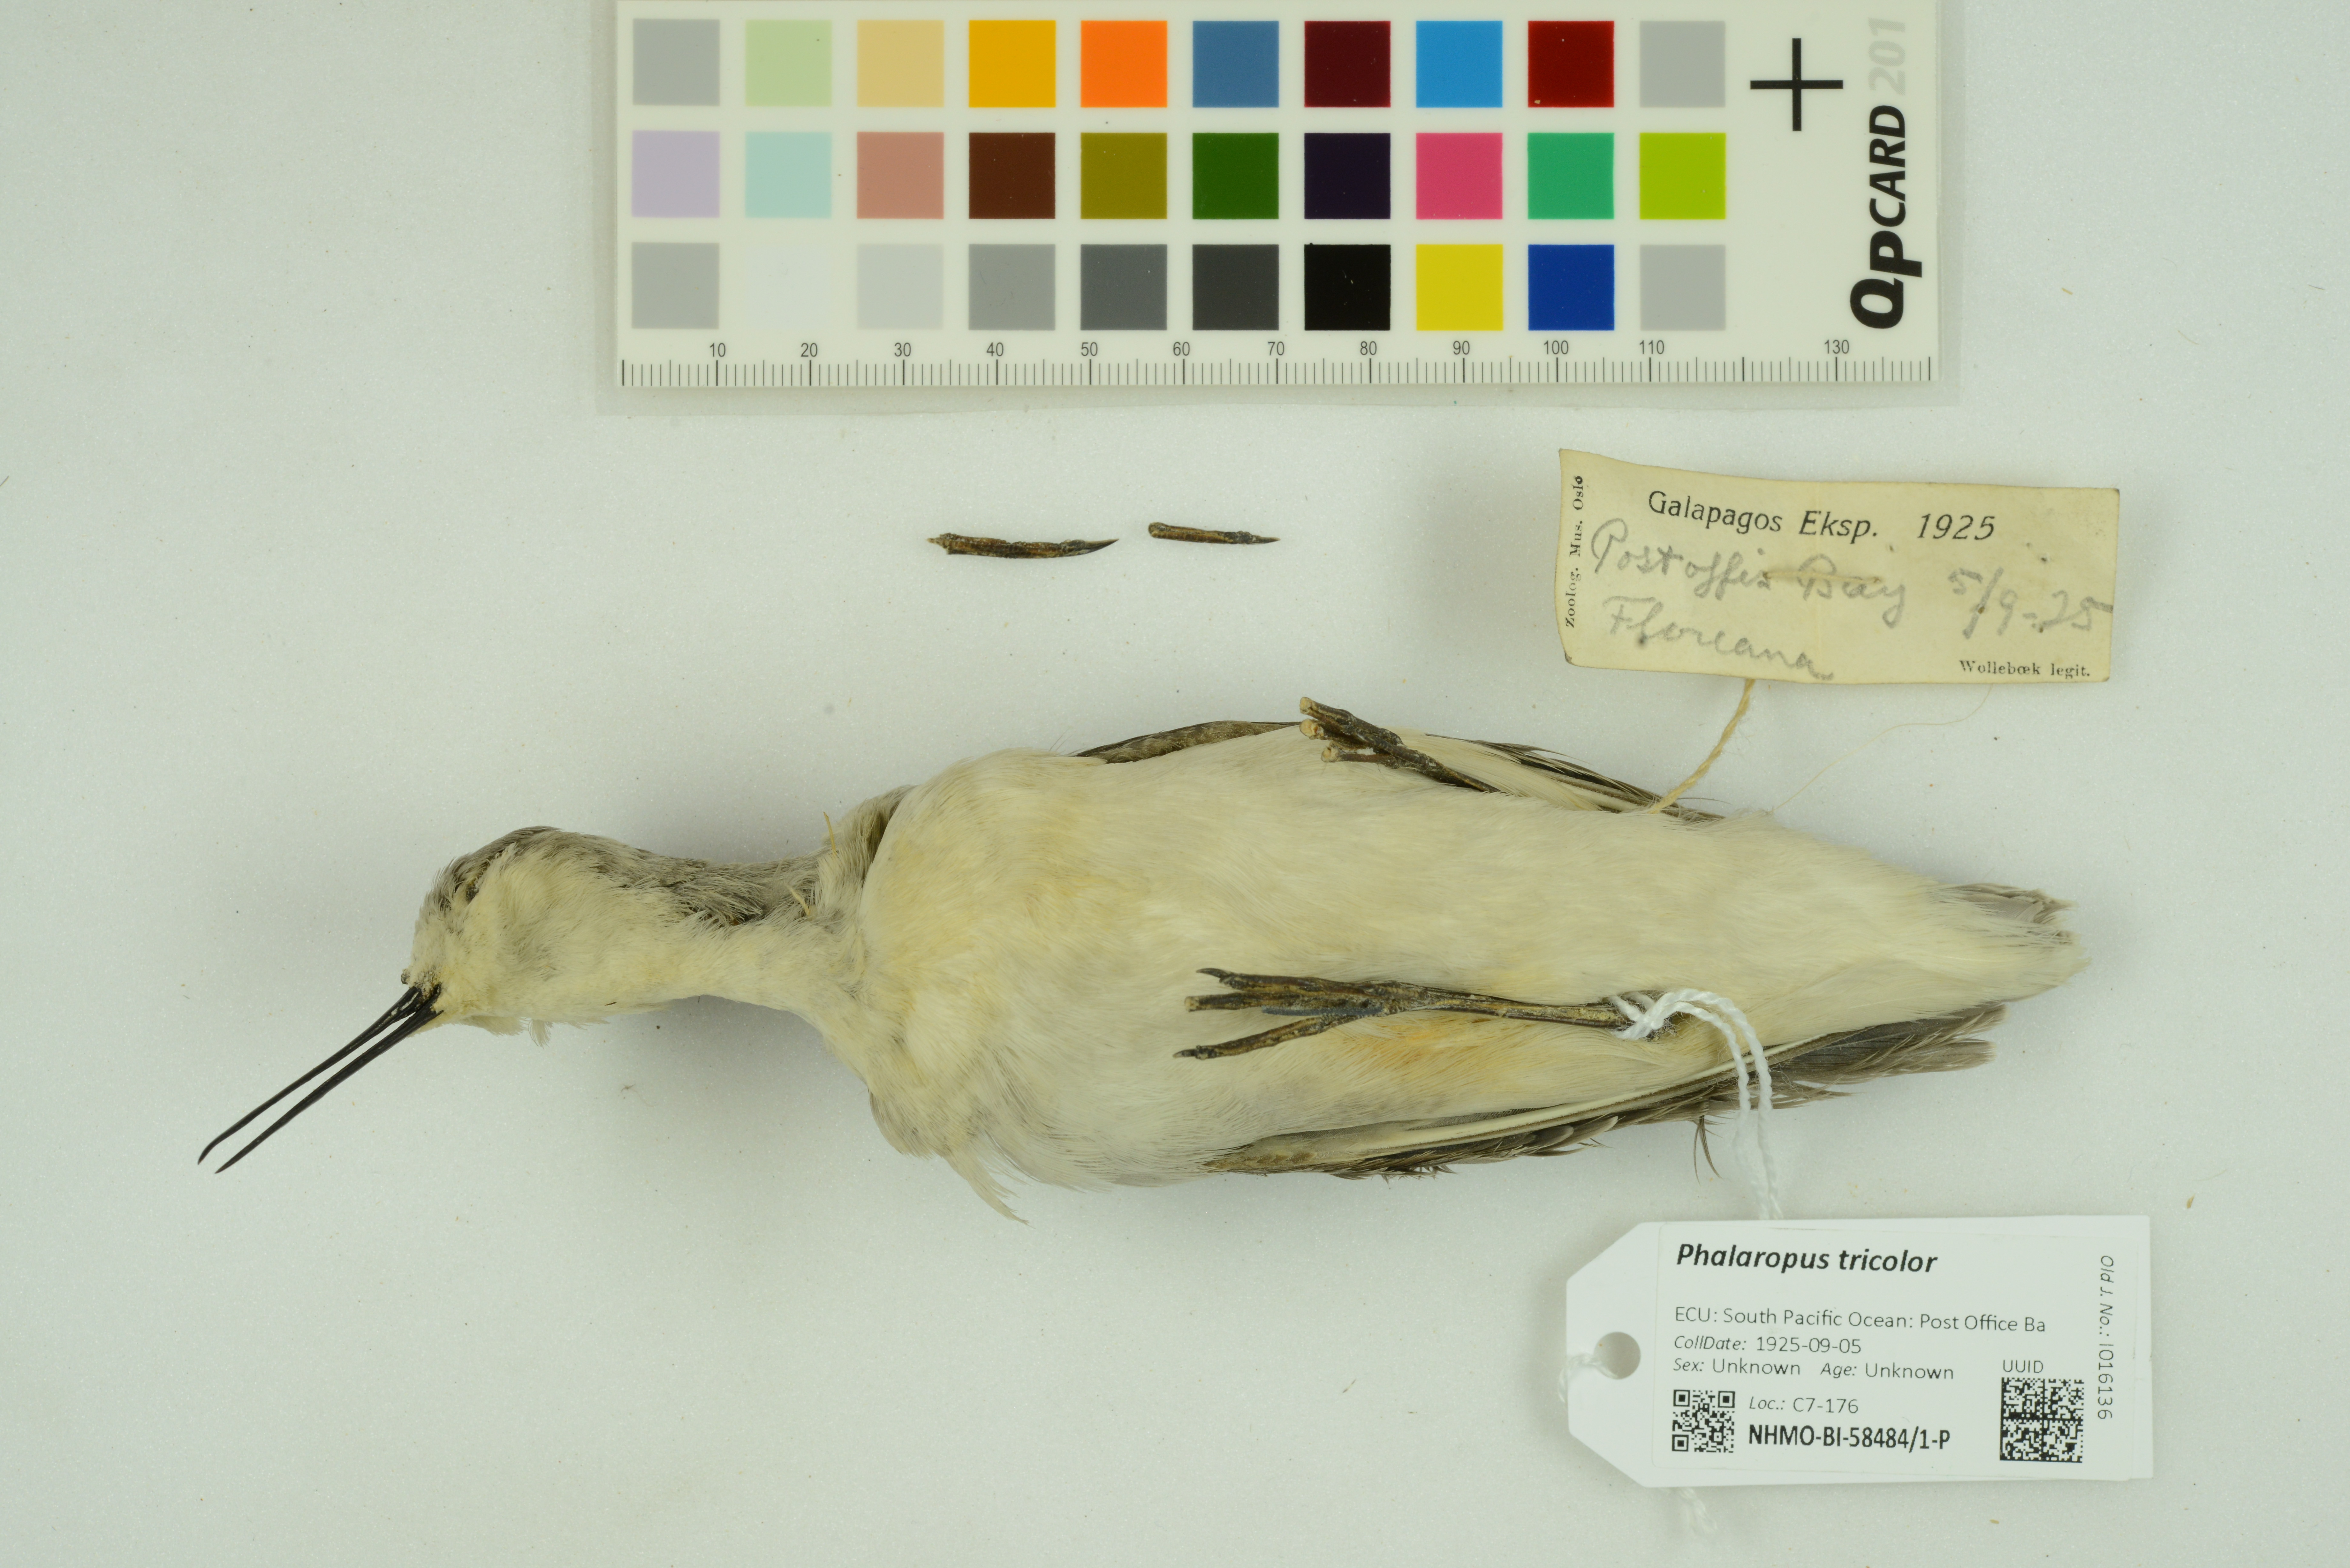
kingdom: Animalia
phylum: Chordata
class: Aves
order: Charadriiformes
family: Scolopacidae
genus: Phalaropus
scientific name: Phalaropus tricolor
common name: Wilson's phalarope
